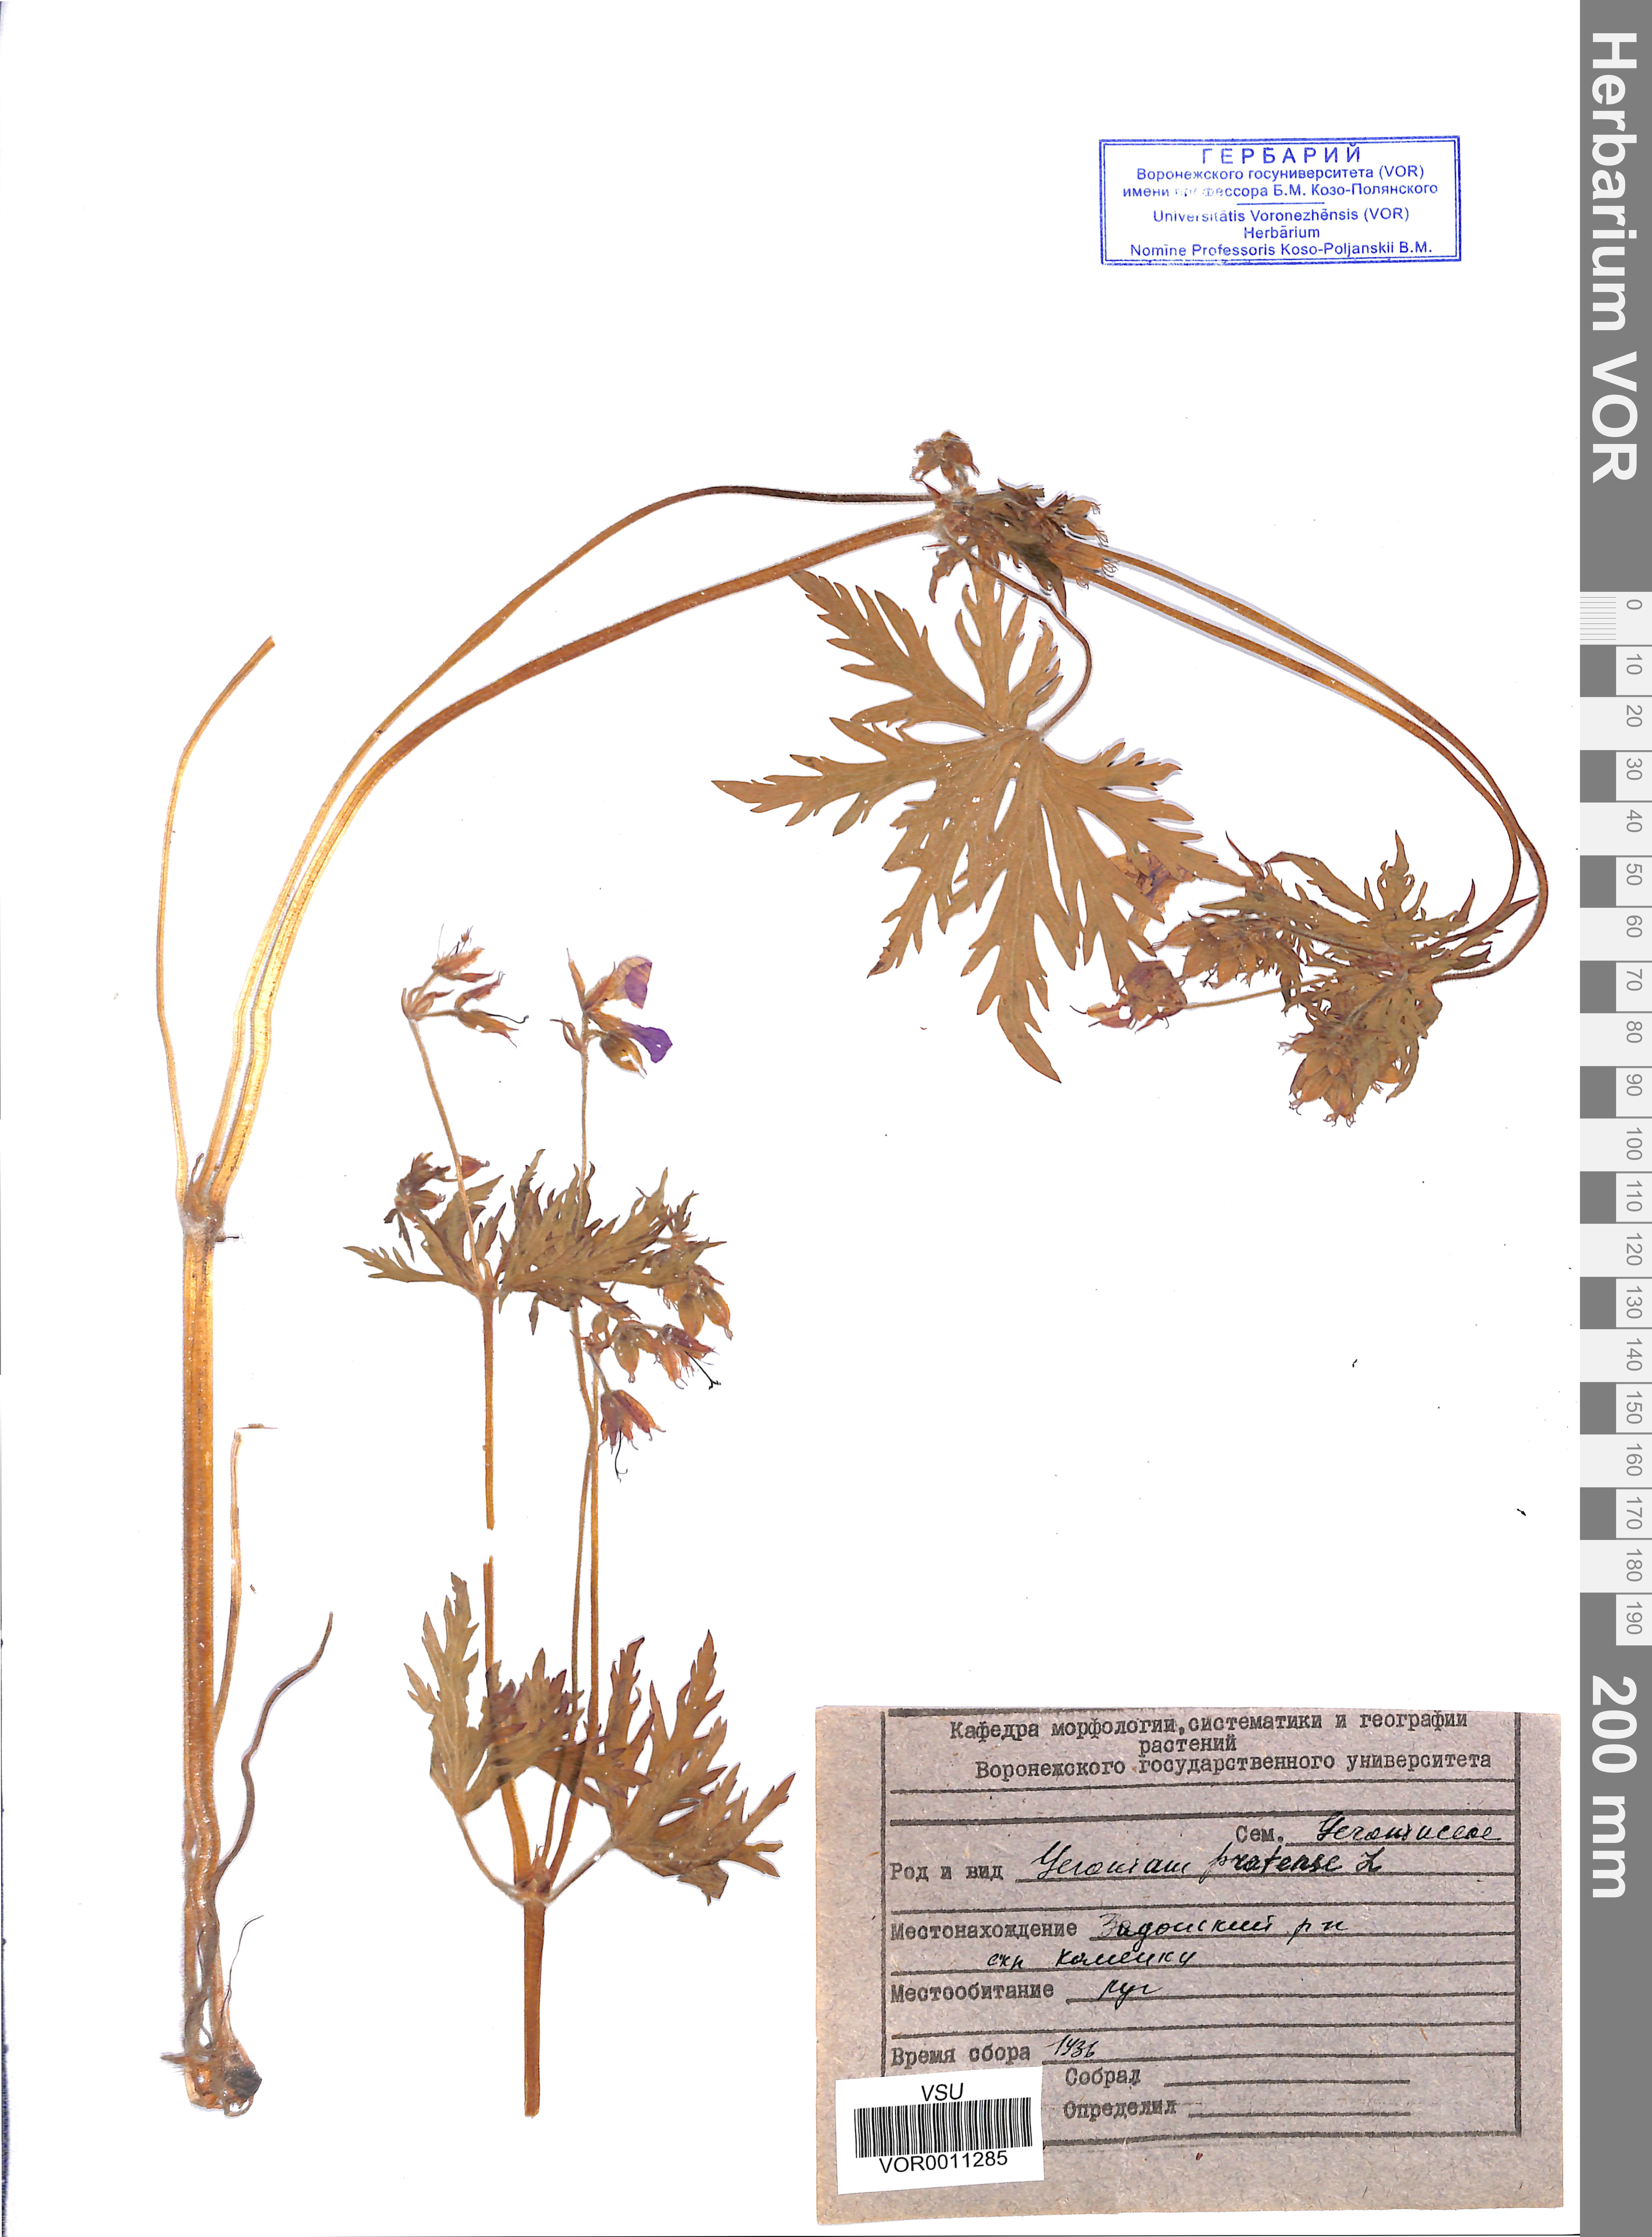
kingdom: Plantae
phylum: Tracheophyta
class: Magnoliopsida
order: Geraniales
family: Geraniaceae
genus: Geranium
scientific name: Geranium pratense
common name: Meadow crane's-bill
